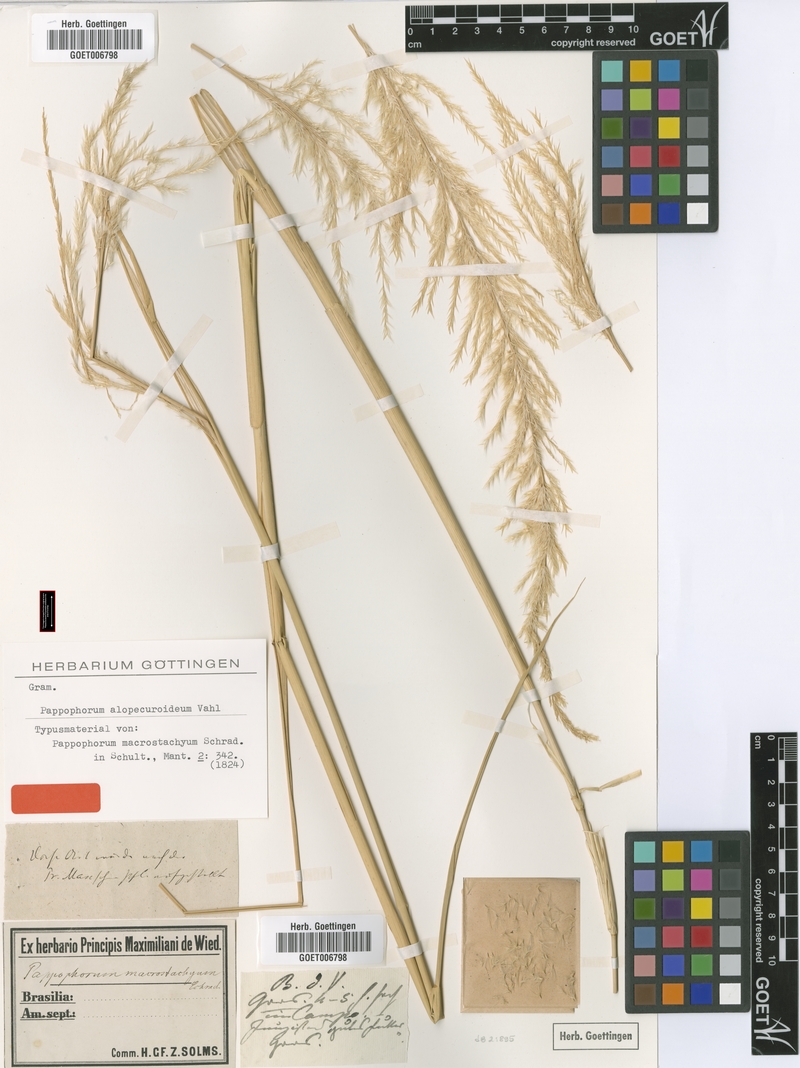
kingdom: Plantae
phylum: Tracheophyta
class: Liliopsida
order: Poales
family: Poaceae
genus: Pappophorum
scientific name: Pappophorum pappiferum
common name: Crabgrass
